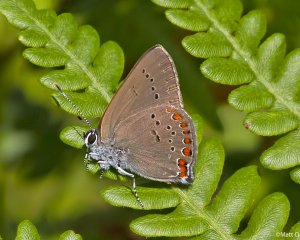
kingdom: Animalia
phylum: Arthropoda
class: Insecta
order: Lepidoptera
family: Lycaenidae
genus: Harkenclenus
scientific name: Harkenclenus titus
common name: Coral Hairstreak
